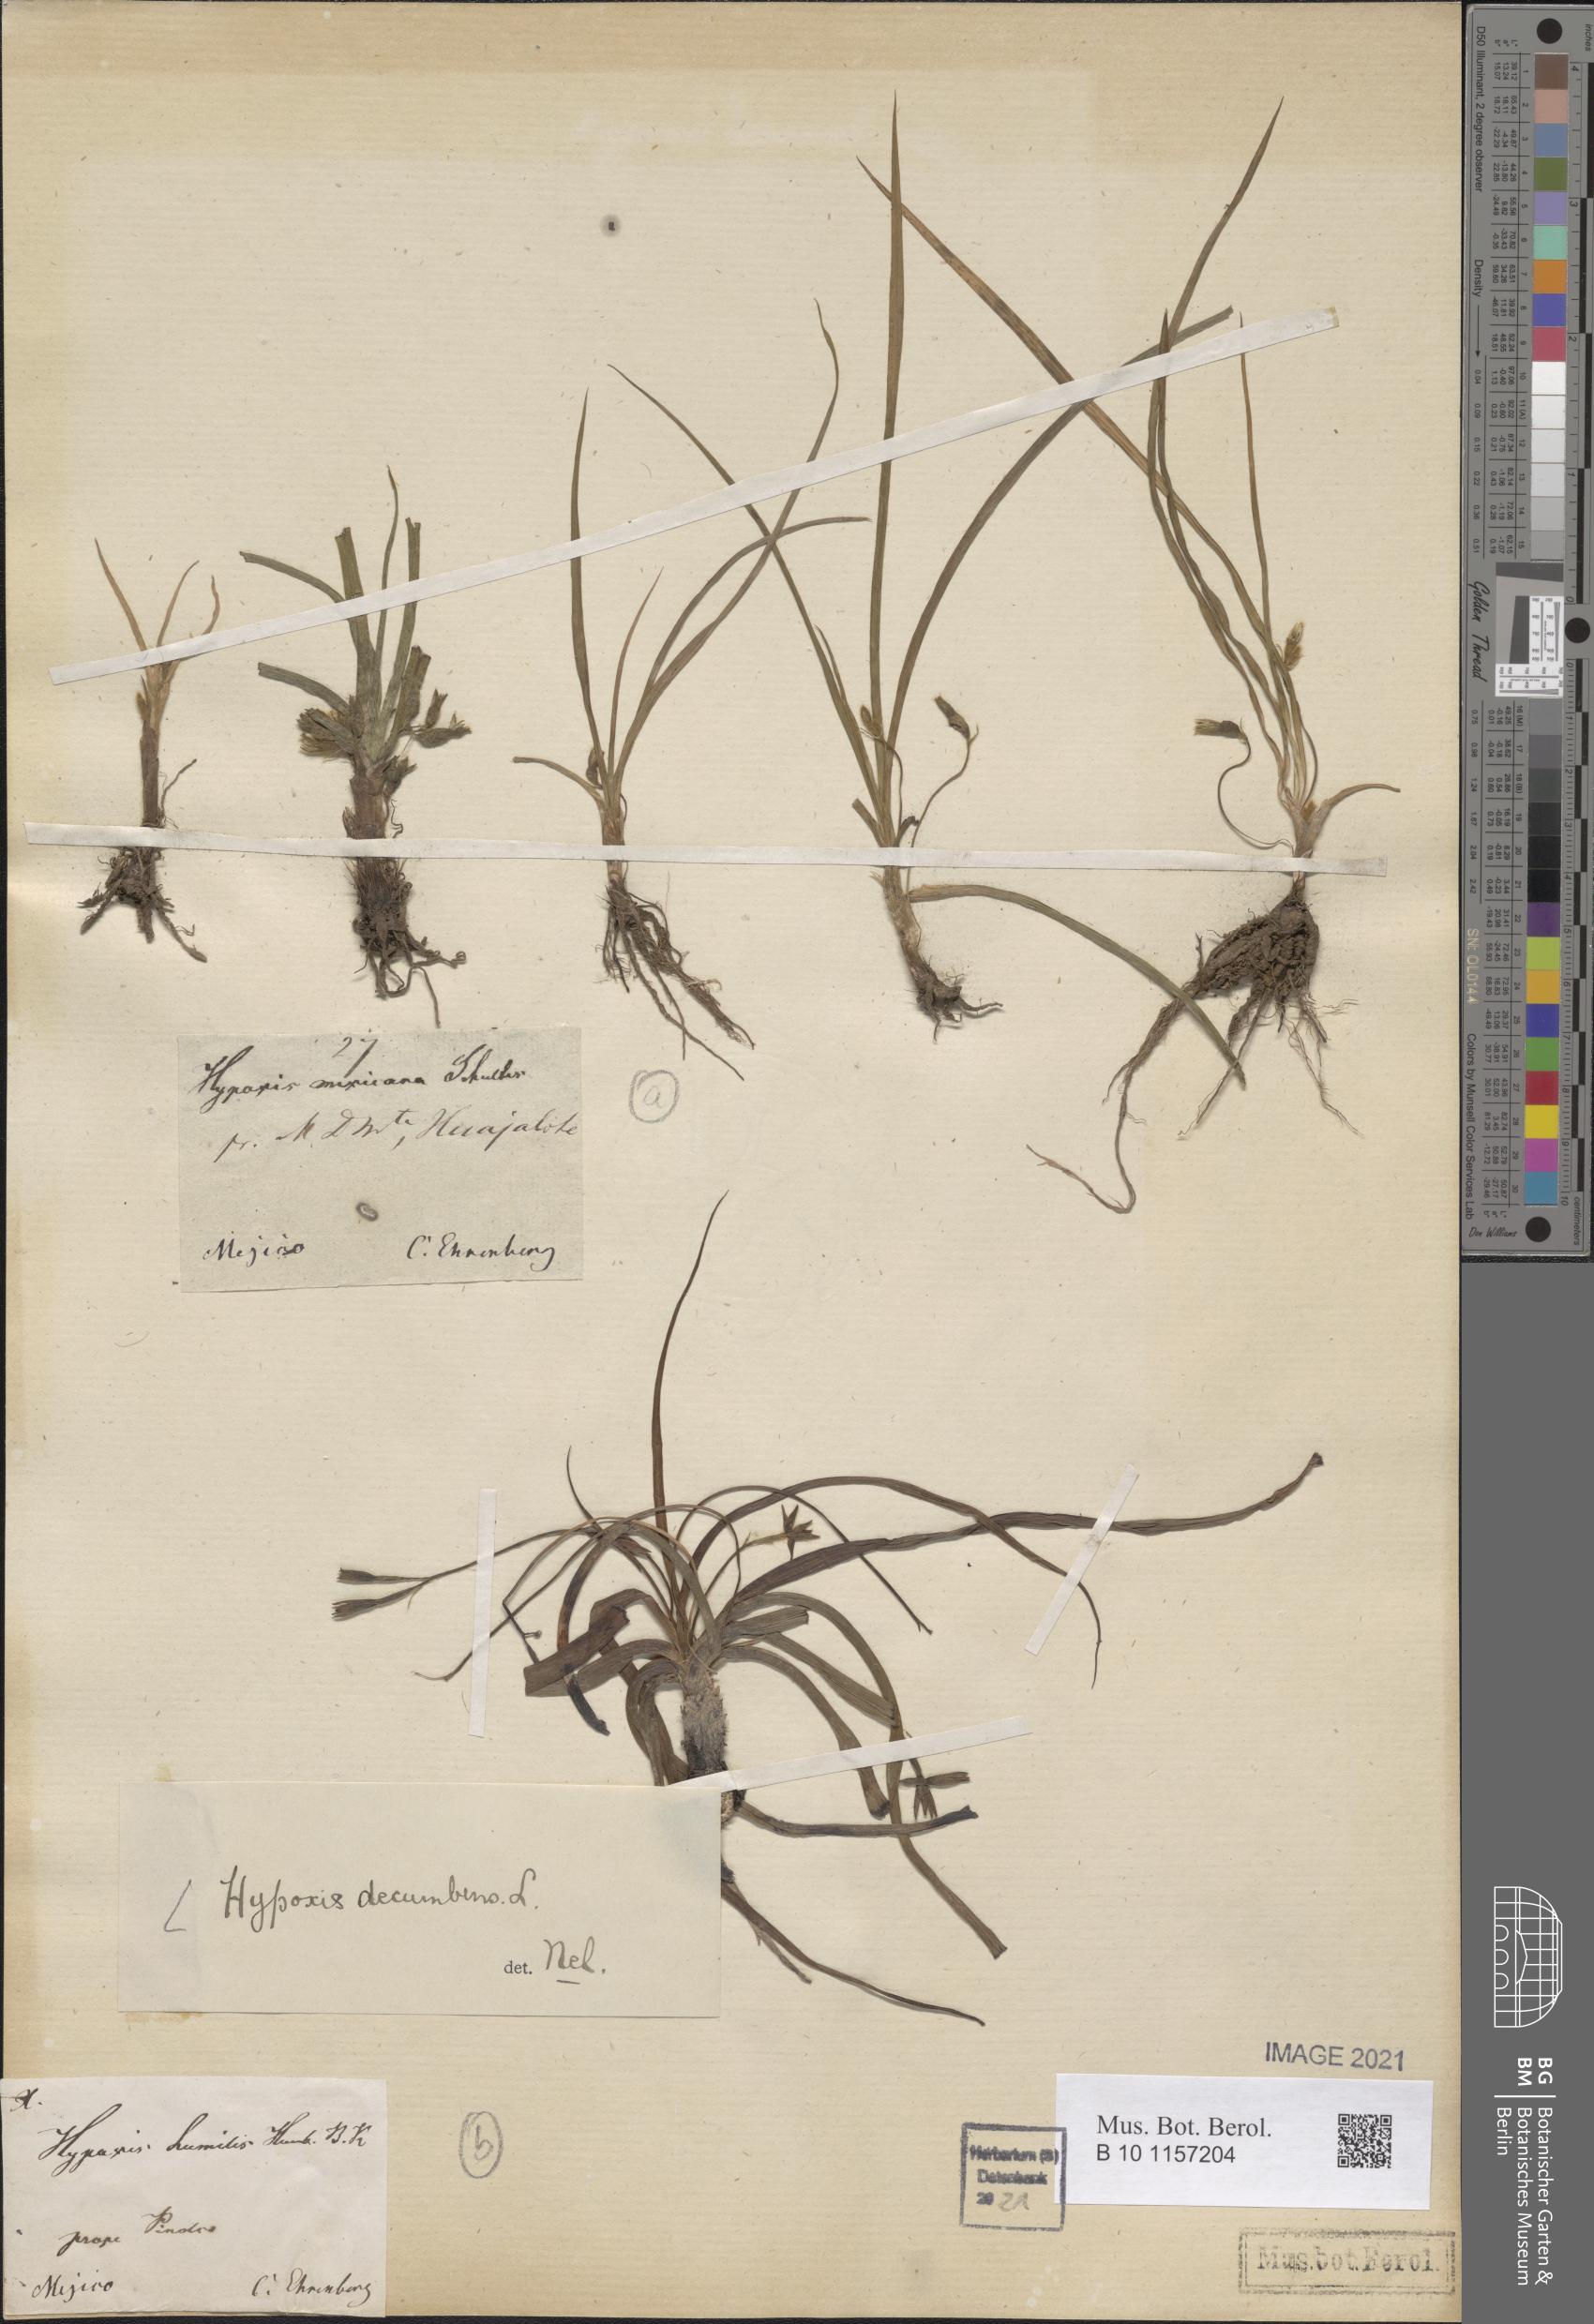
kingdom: Plantae
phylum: Tracheophyta
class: Liliopsida
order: Asparagales
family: Hypoxidaceae
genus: Hypoxis
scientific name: Hypoxis decumbens
